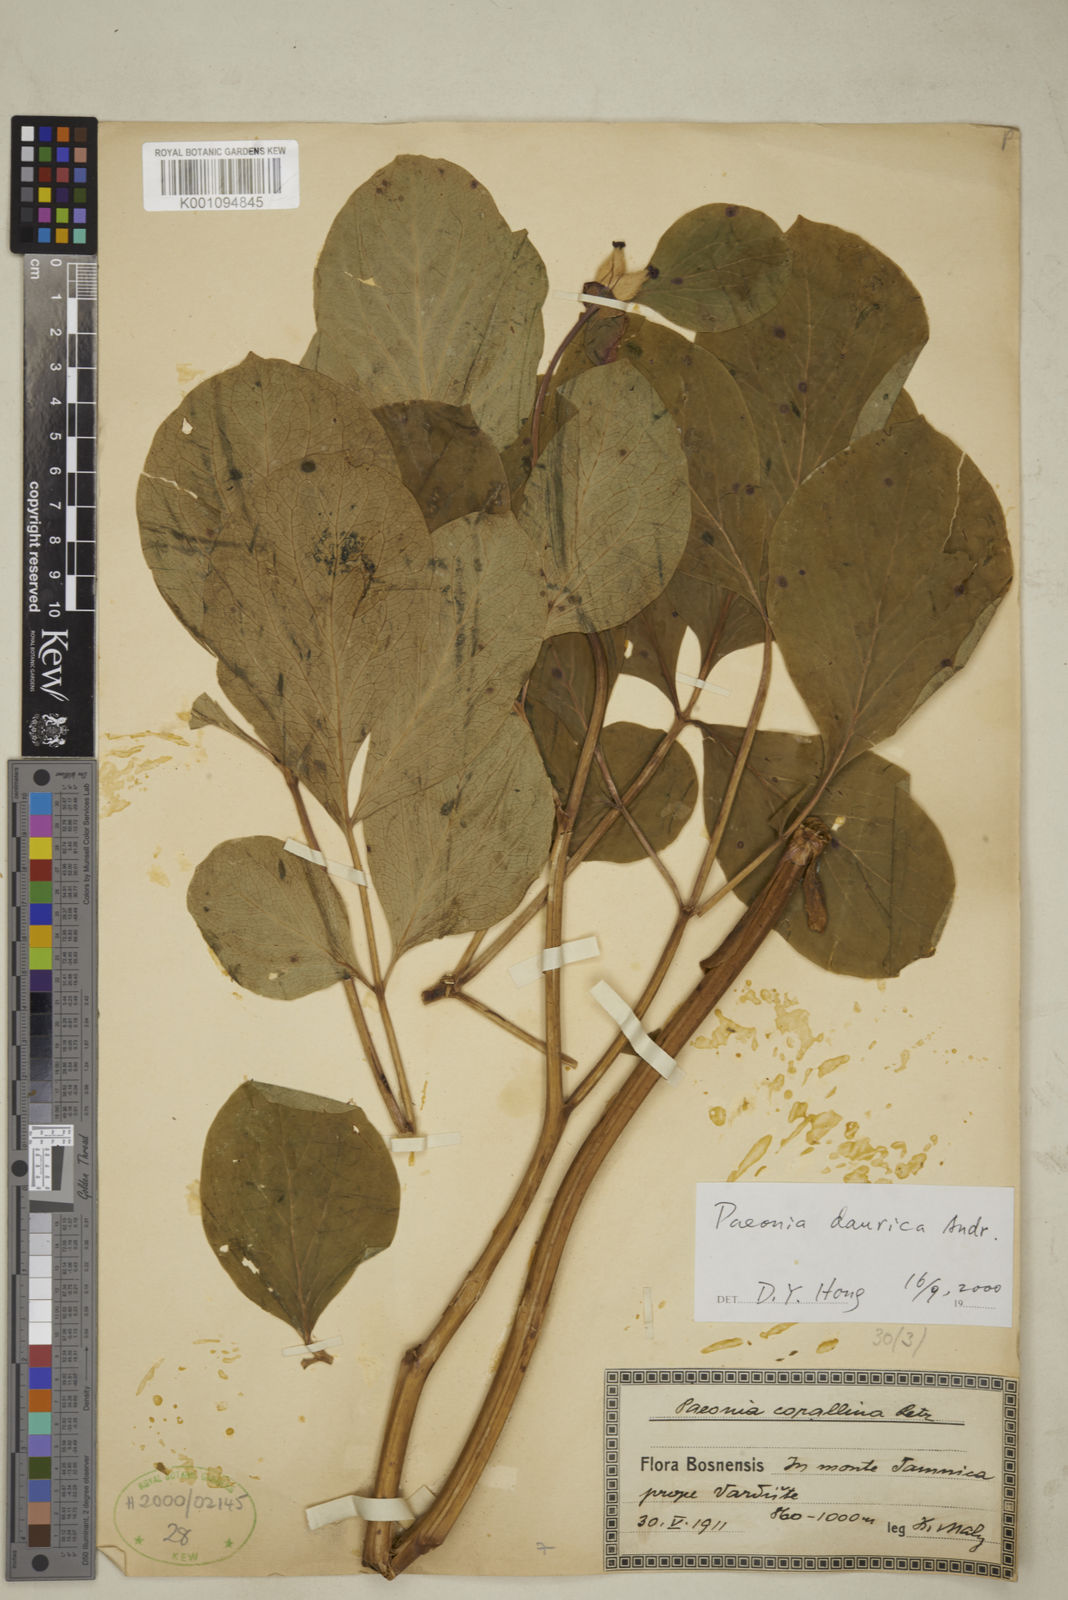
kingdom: Plantae
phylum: Tracheophyta
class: Magnoliopsida
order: Saxifragales
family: Paeoniaceae
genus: Paeonia
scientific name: Paeonia daurica
